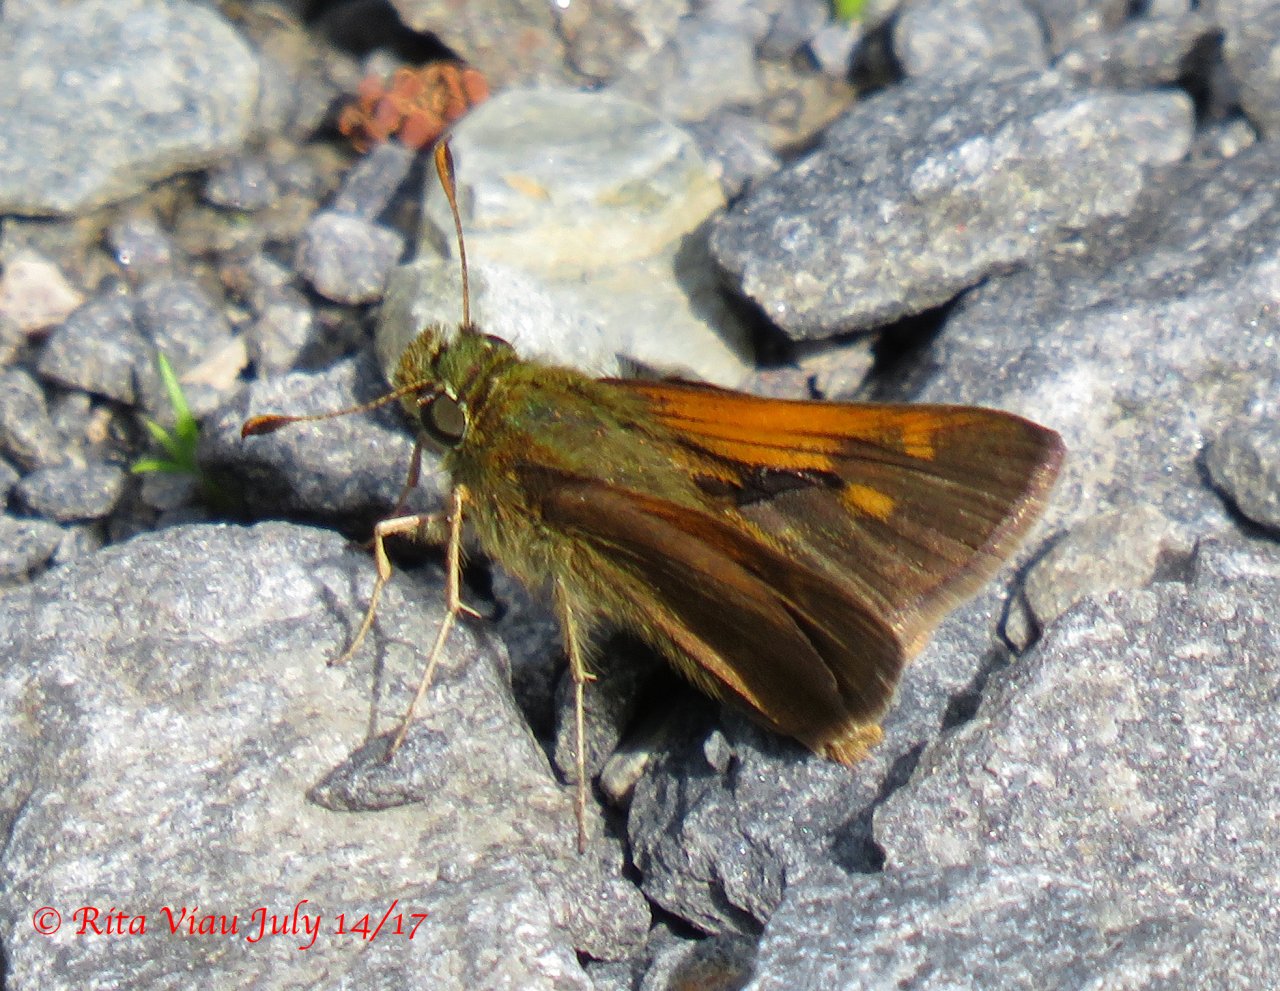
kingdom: Animalia
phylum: Arthropoda
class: Insecta
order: Lepidoptera
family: Hesperiidae
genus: Polites
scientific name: Polites themistocles
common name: Tawny-edged Skipper
